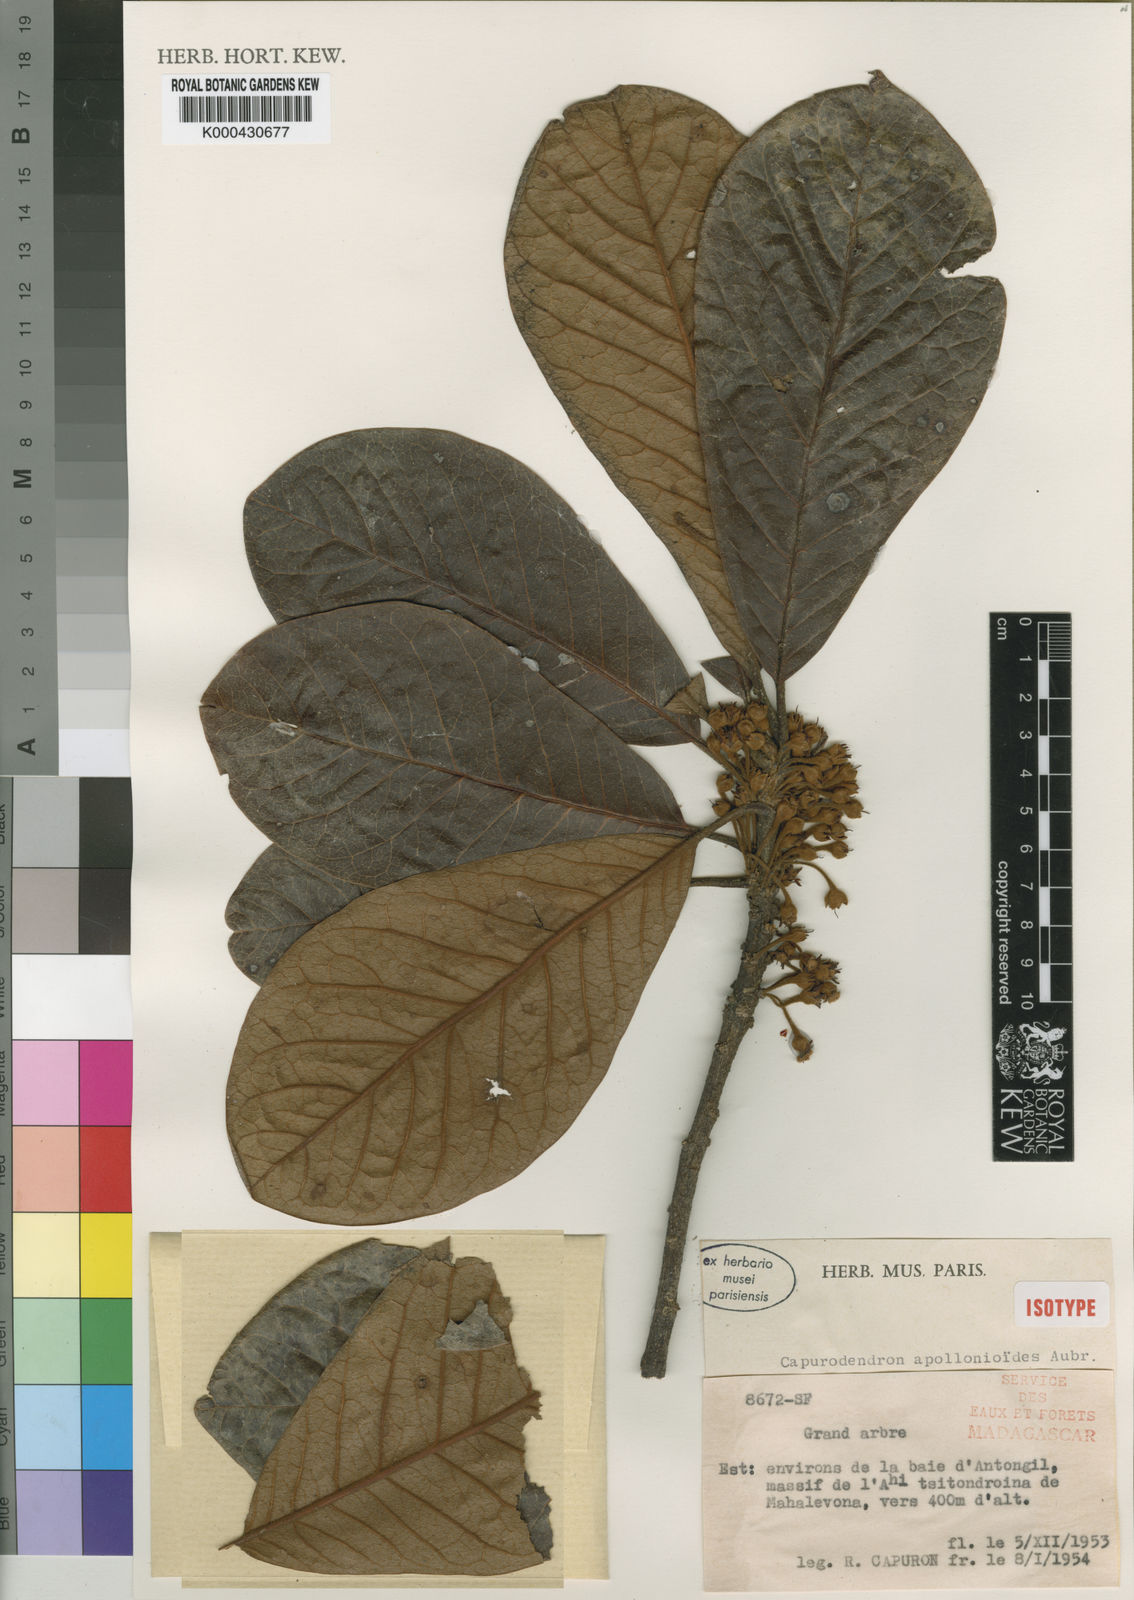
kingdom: Plantae
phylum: Tracheophyta
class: Magnoliopsida
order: Ericales
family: Sapotaceae
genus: Capurodendron
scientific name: Capurodendron
